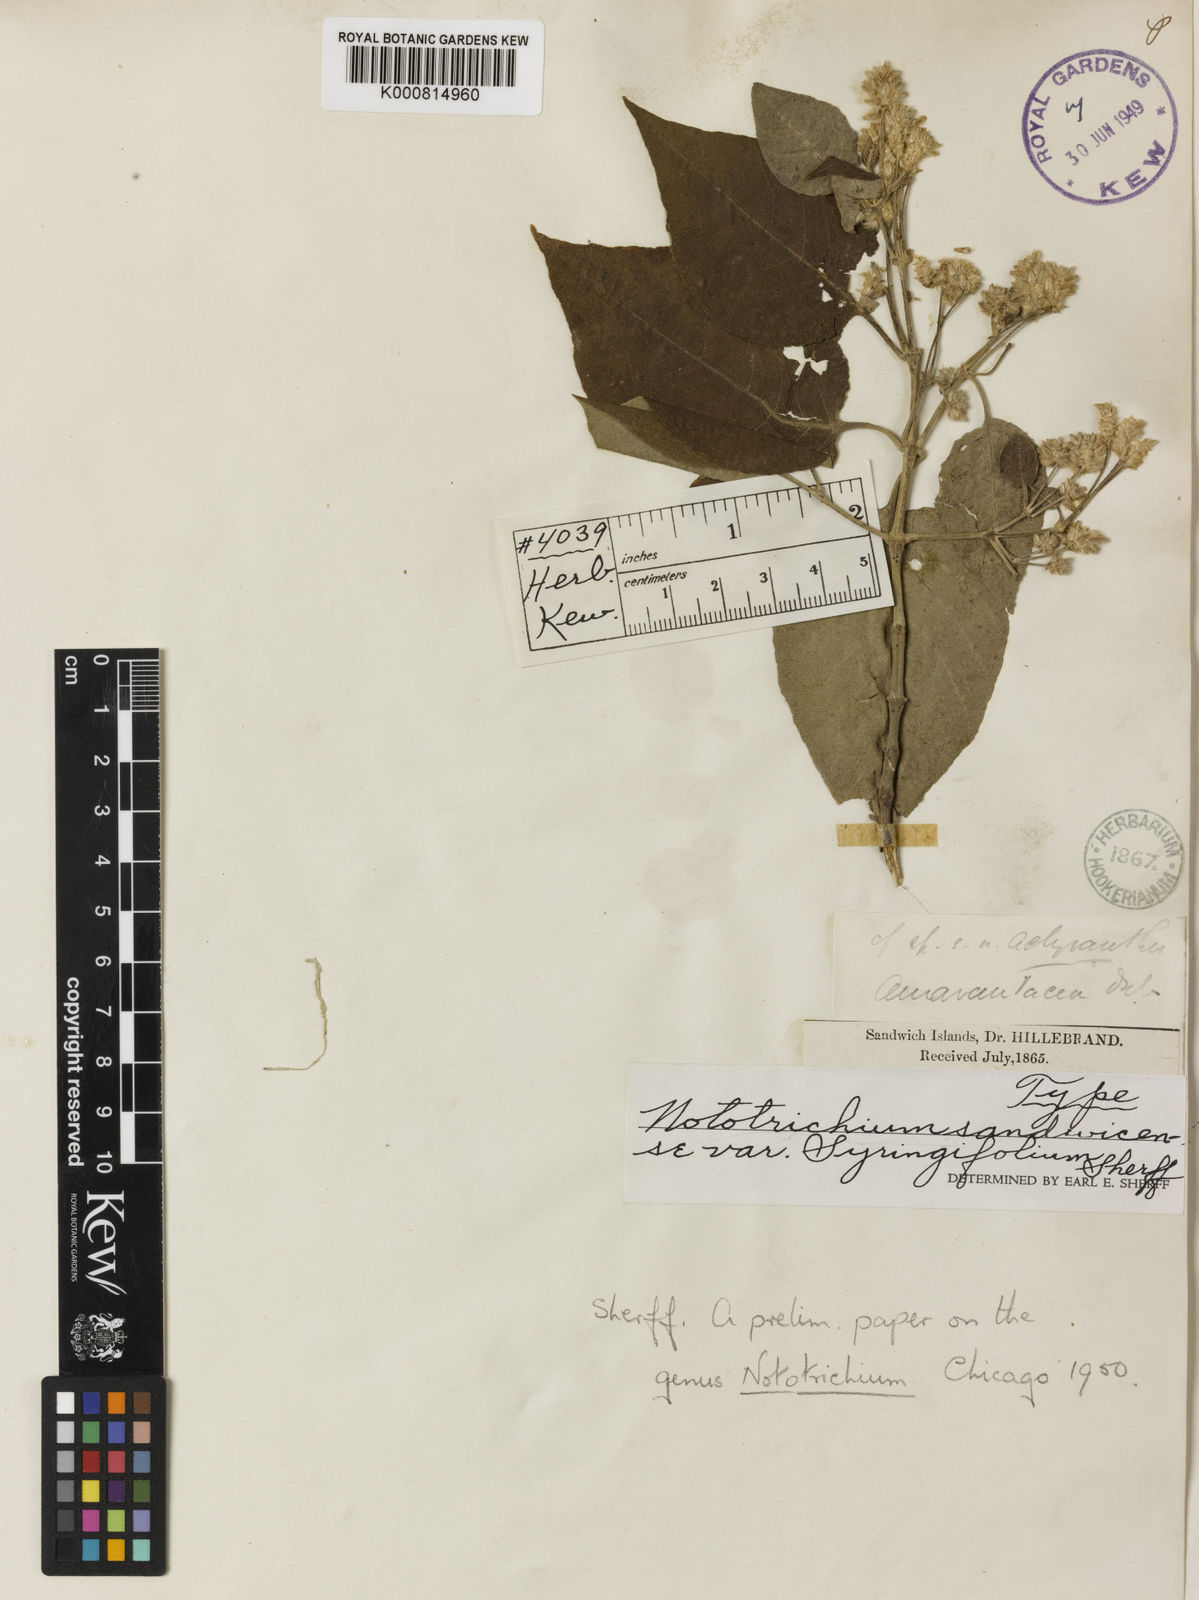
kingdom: Plantae
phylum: Tracheophyta
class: Magnoliopsida
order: Caryophyllales
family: Amaranthaceae
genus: Nototrichium
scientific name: Nototrichium
